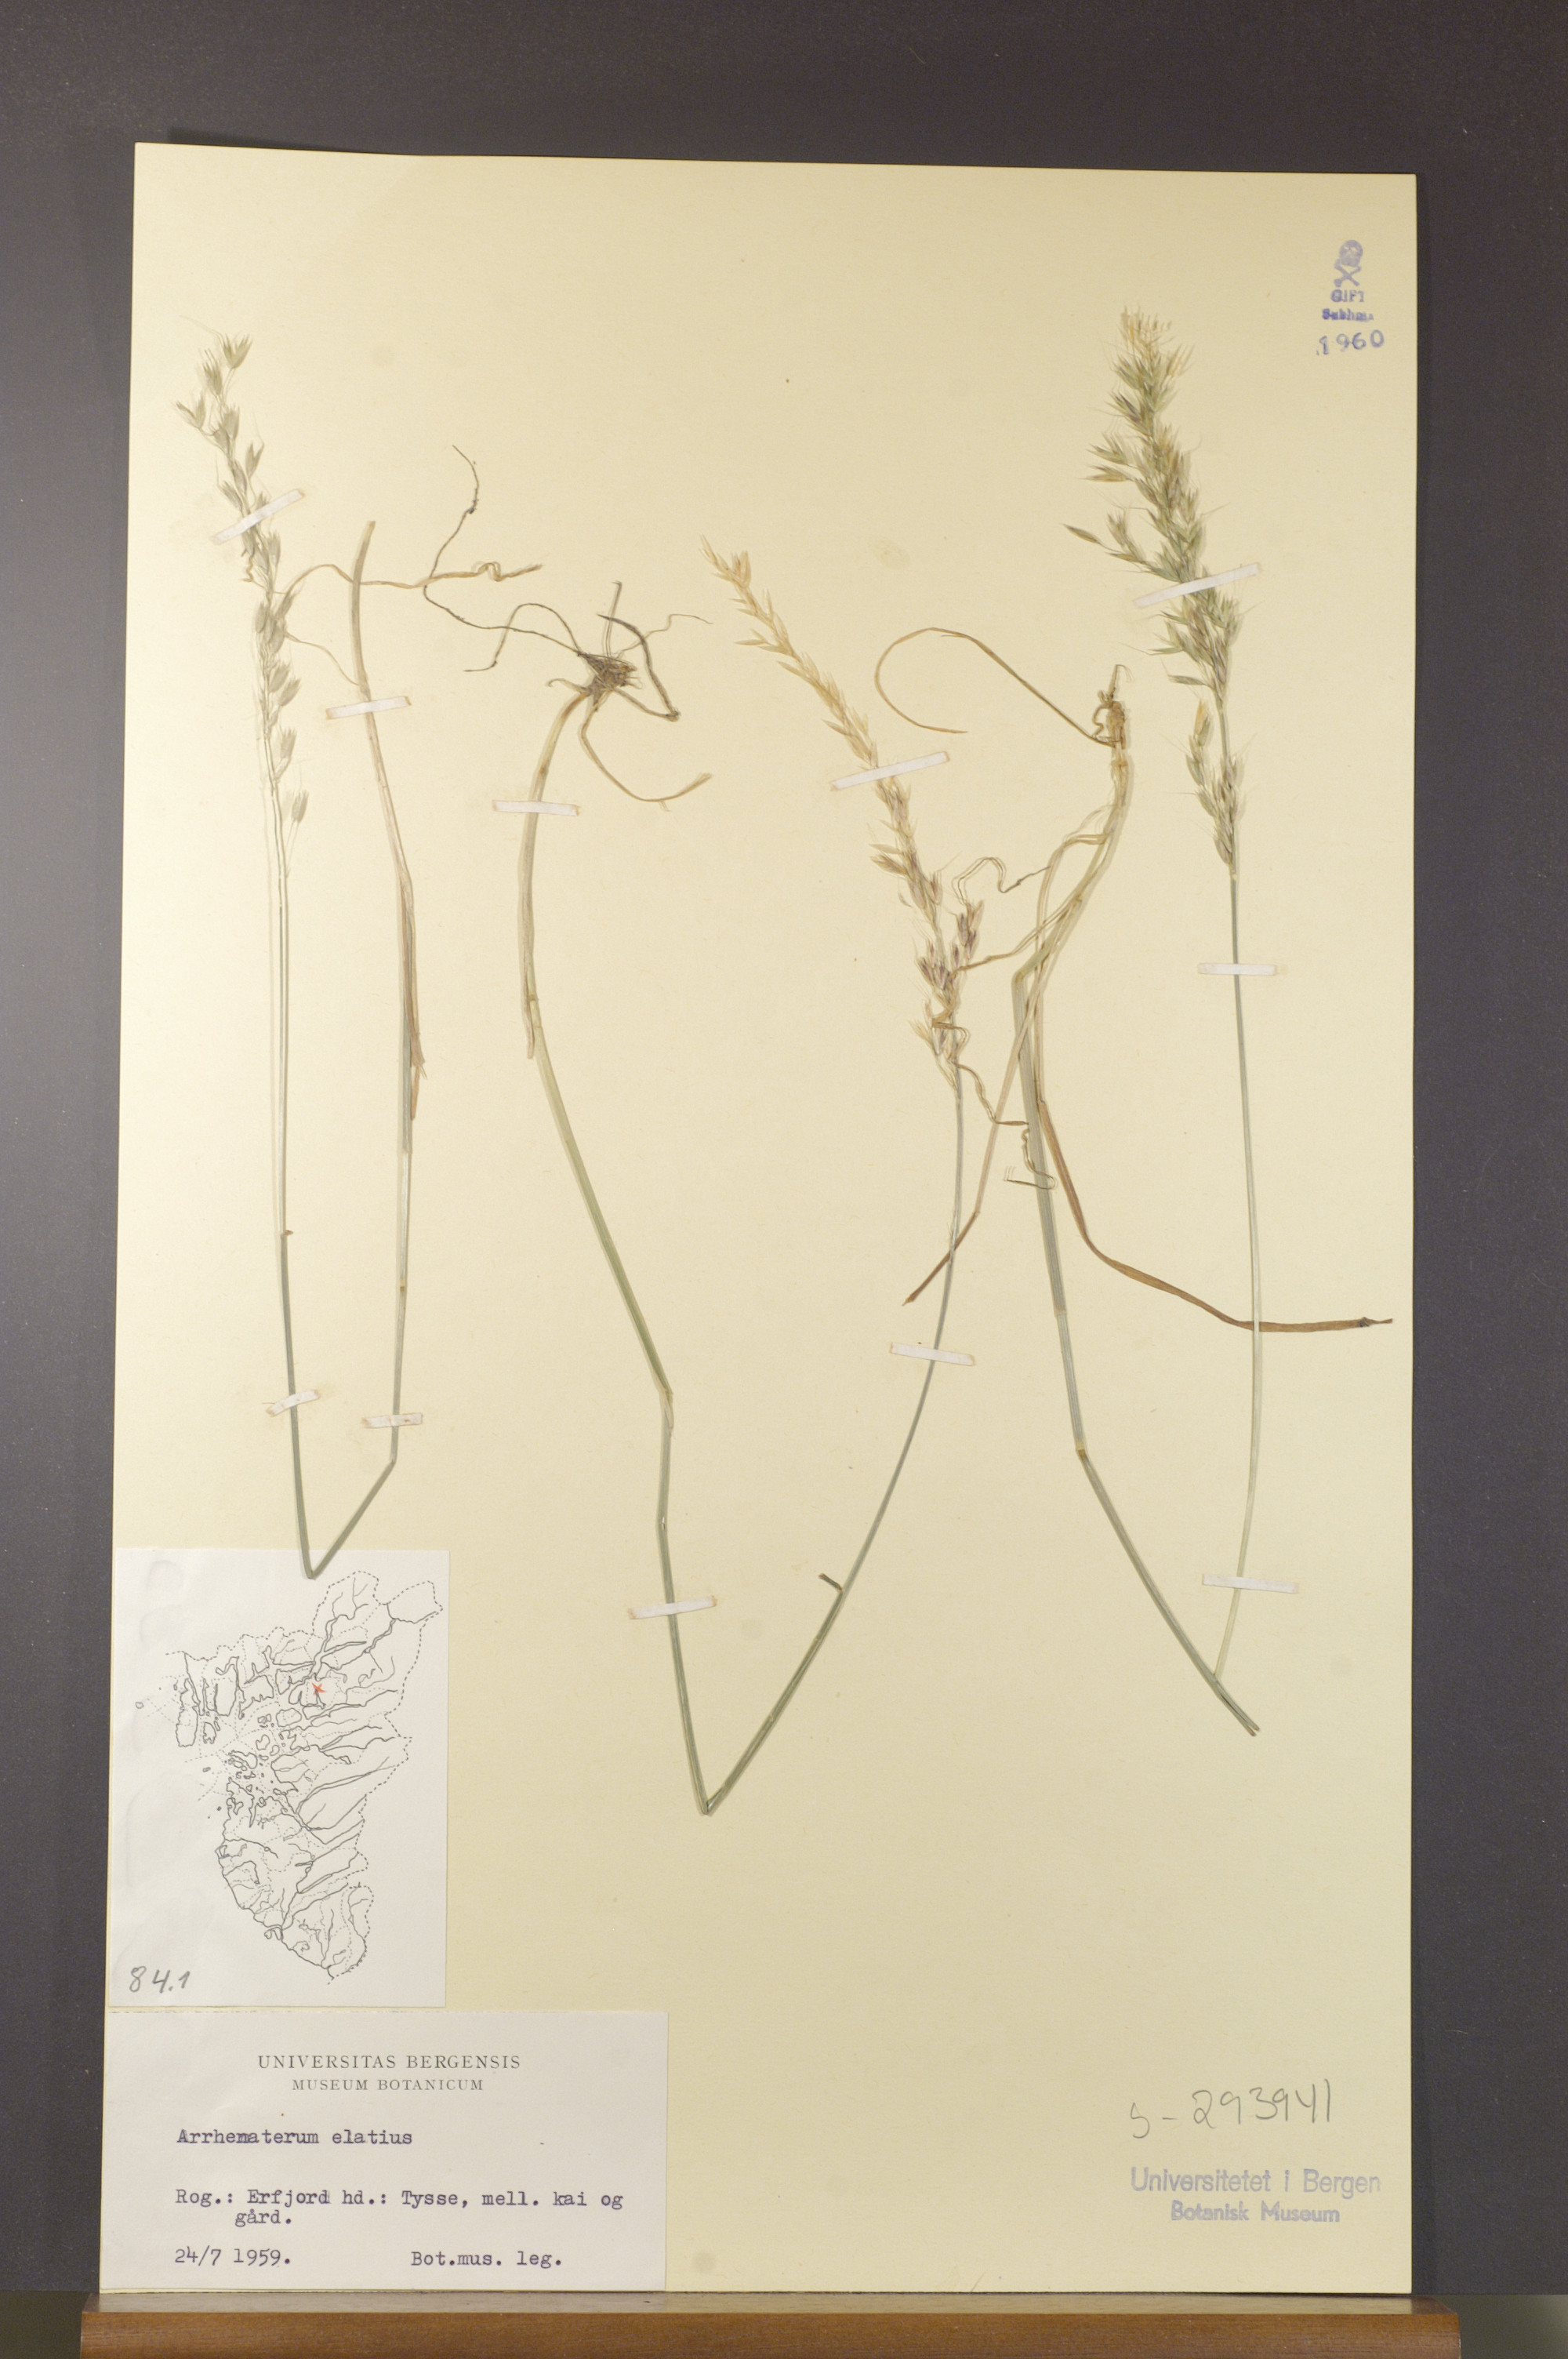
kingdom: Plantae
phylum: Tracheophyta
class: Liliopsida
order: Poales
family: Poaceae
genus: Arrhenatherum
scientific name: Arrhenatherum elatius
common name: Tall oatgrass
